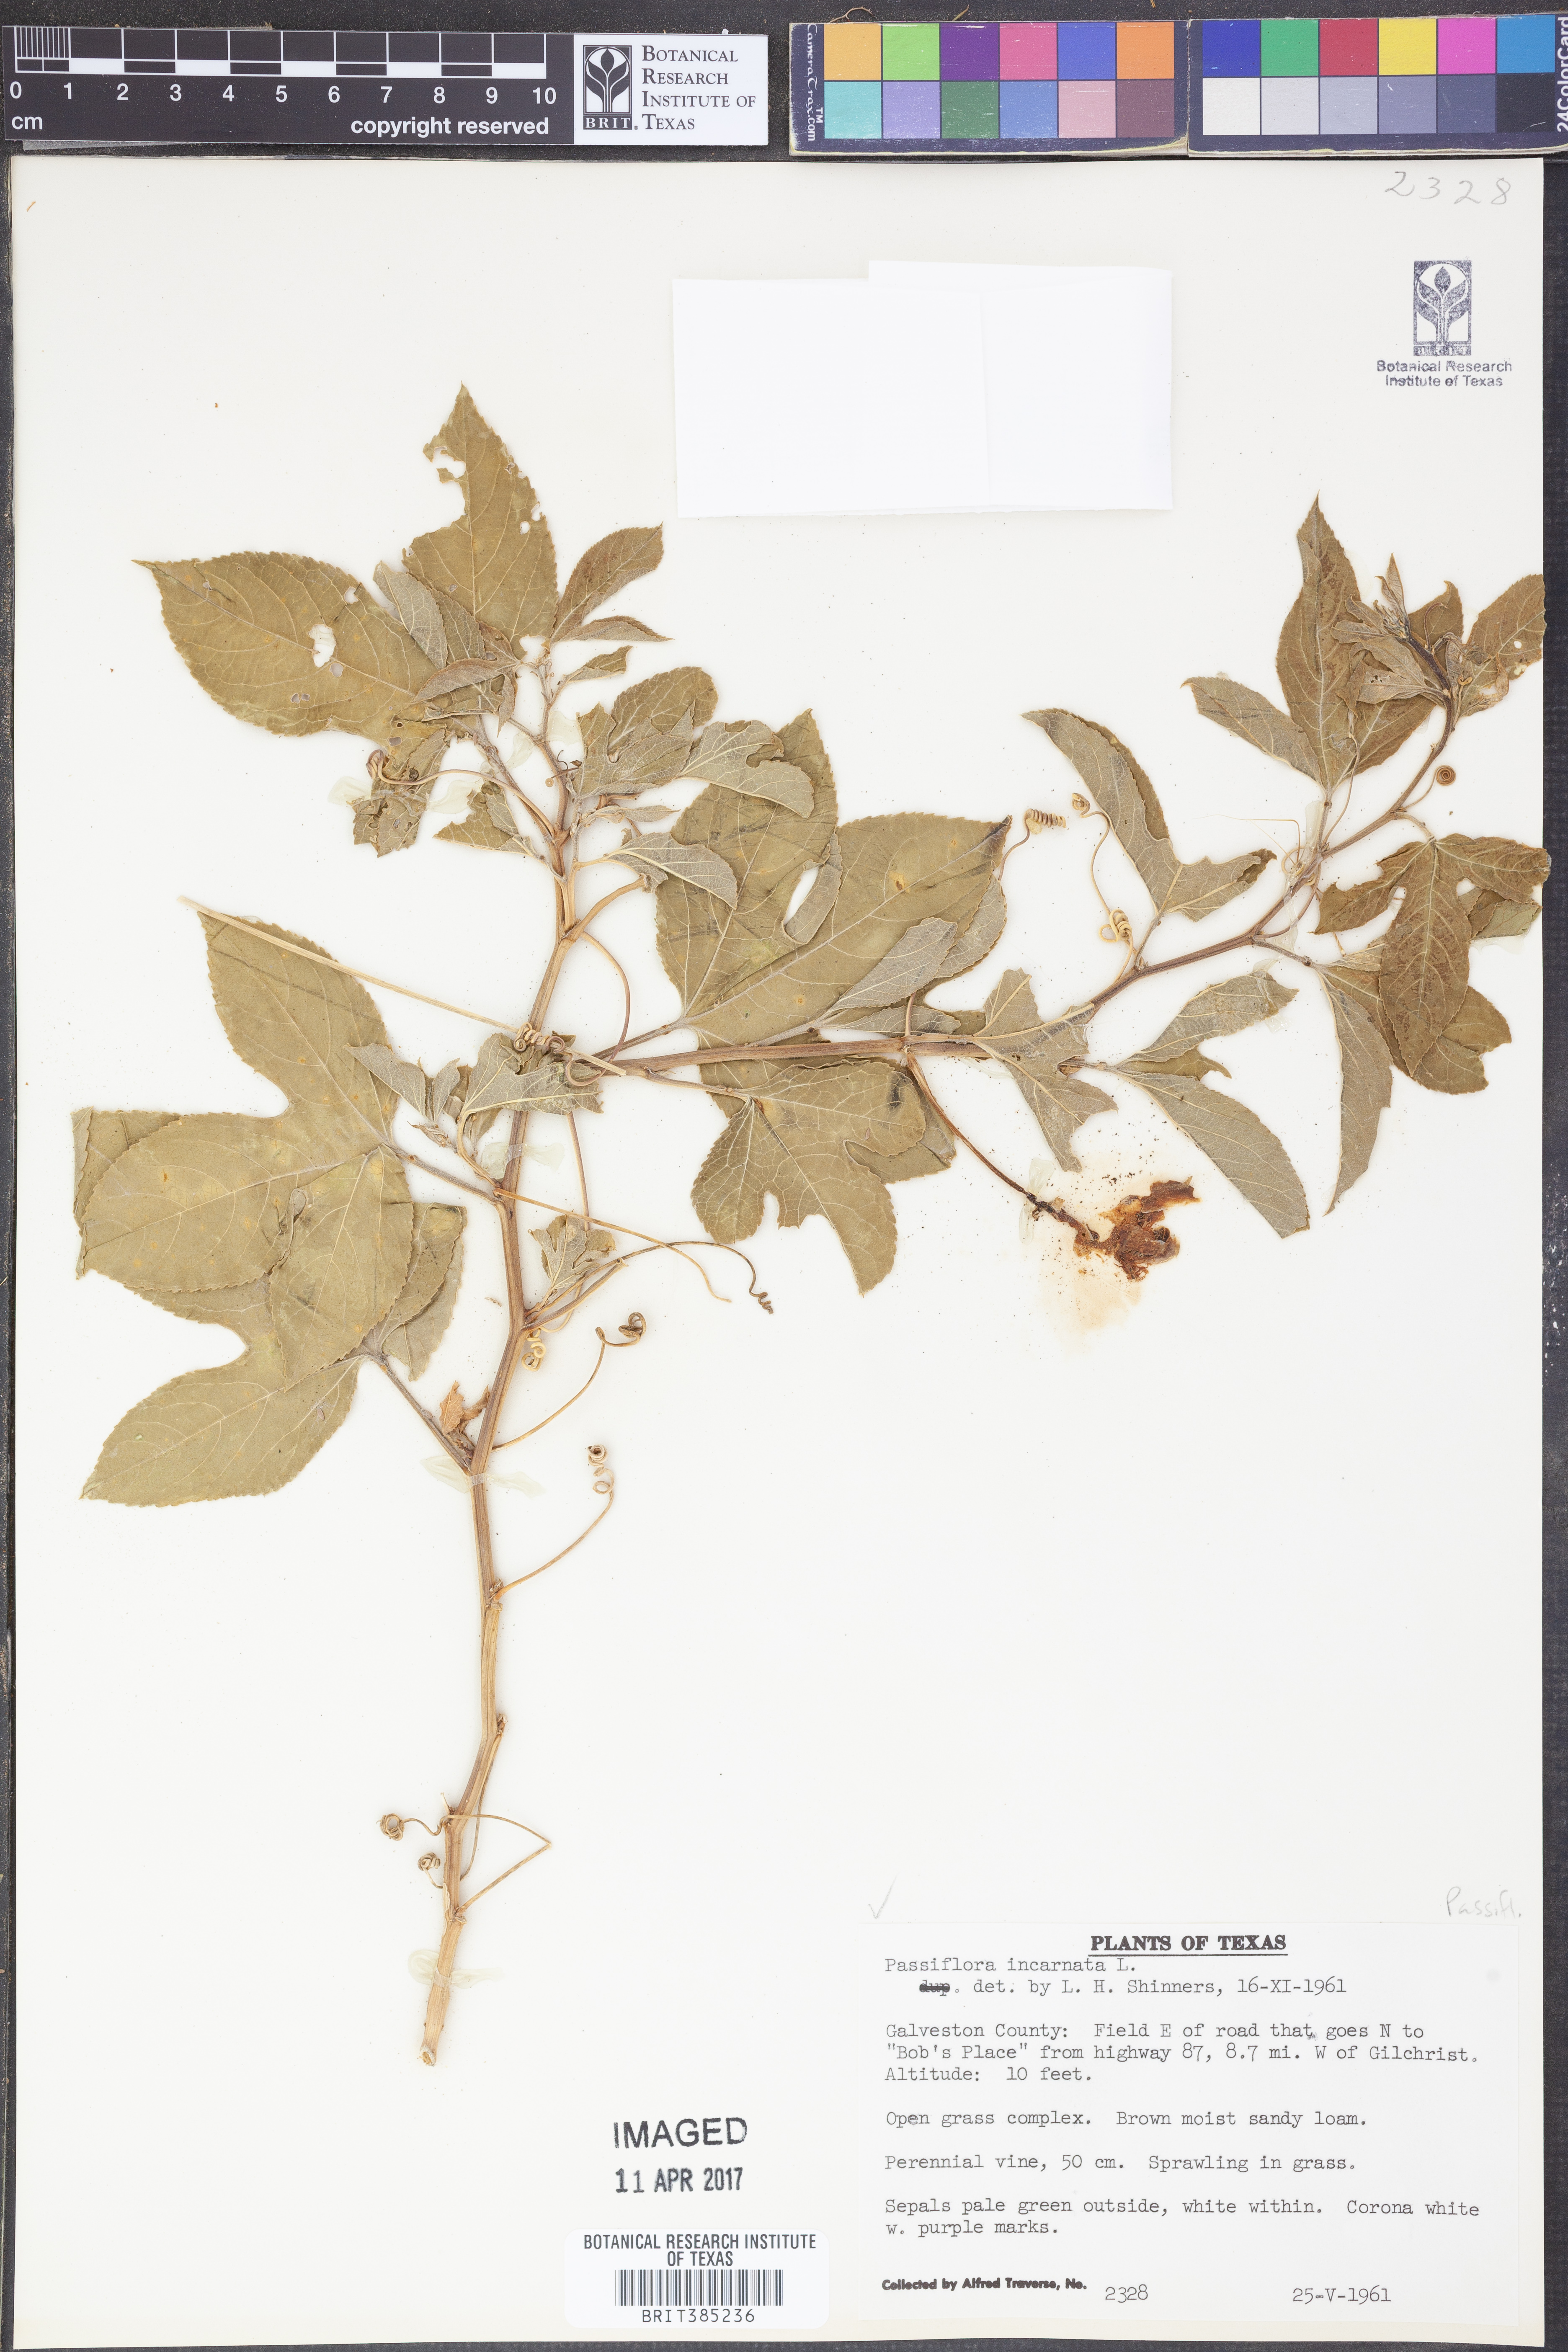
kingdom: Plantae
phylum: Tracheophyta
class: Magnoliopsida
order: Malpighiales
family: Passifloraceae
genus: Passiflora
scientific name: Passiflora incarnata
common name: Apricot-vine
